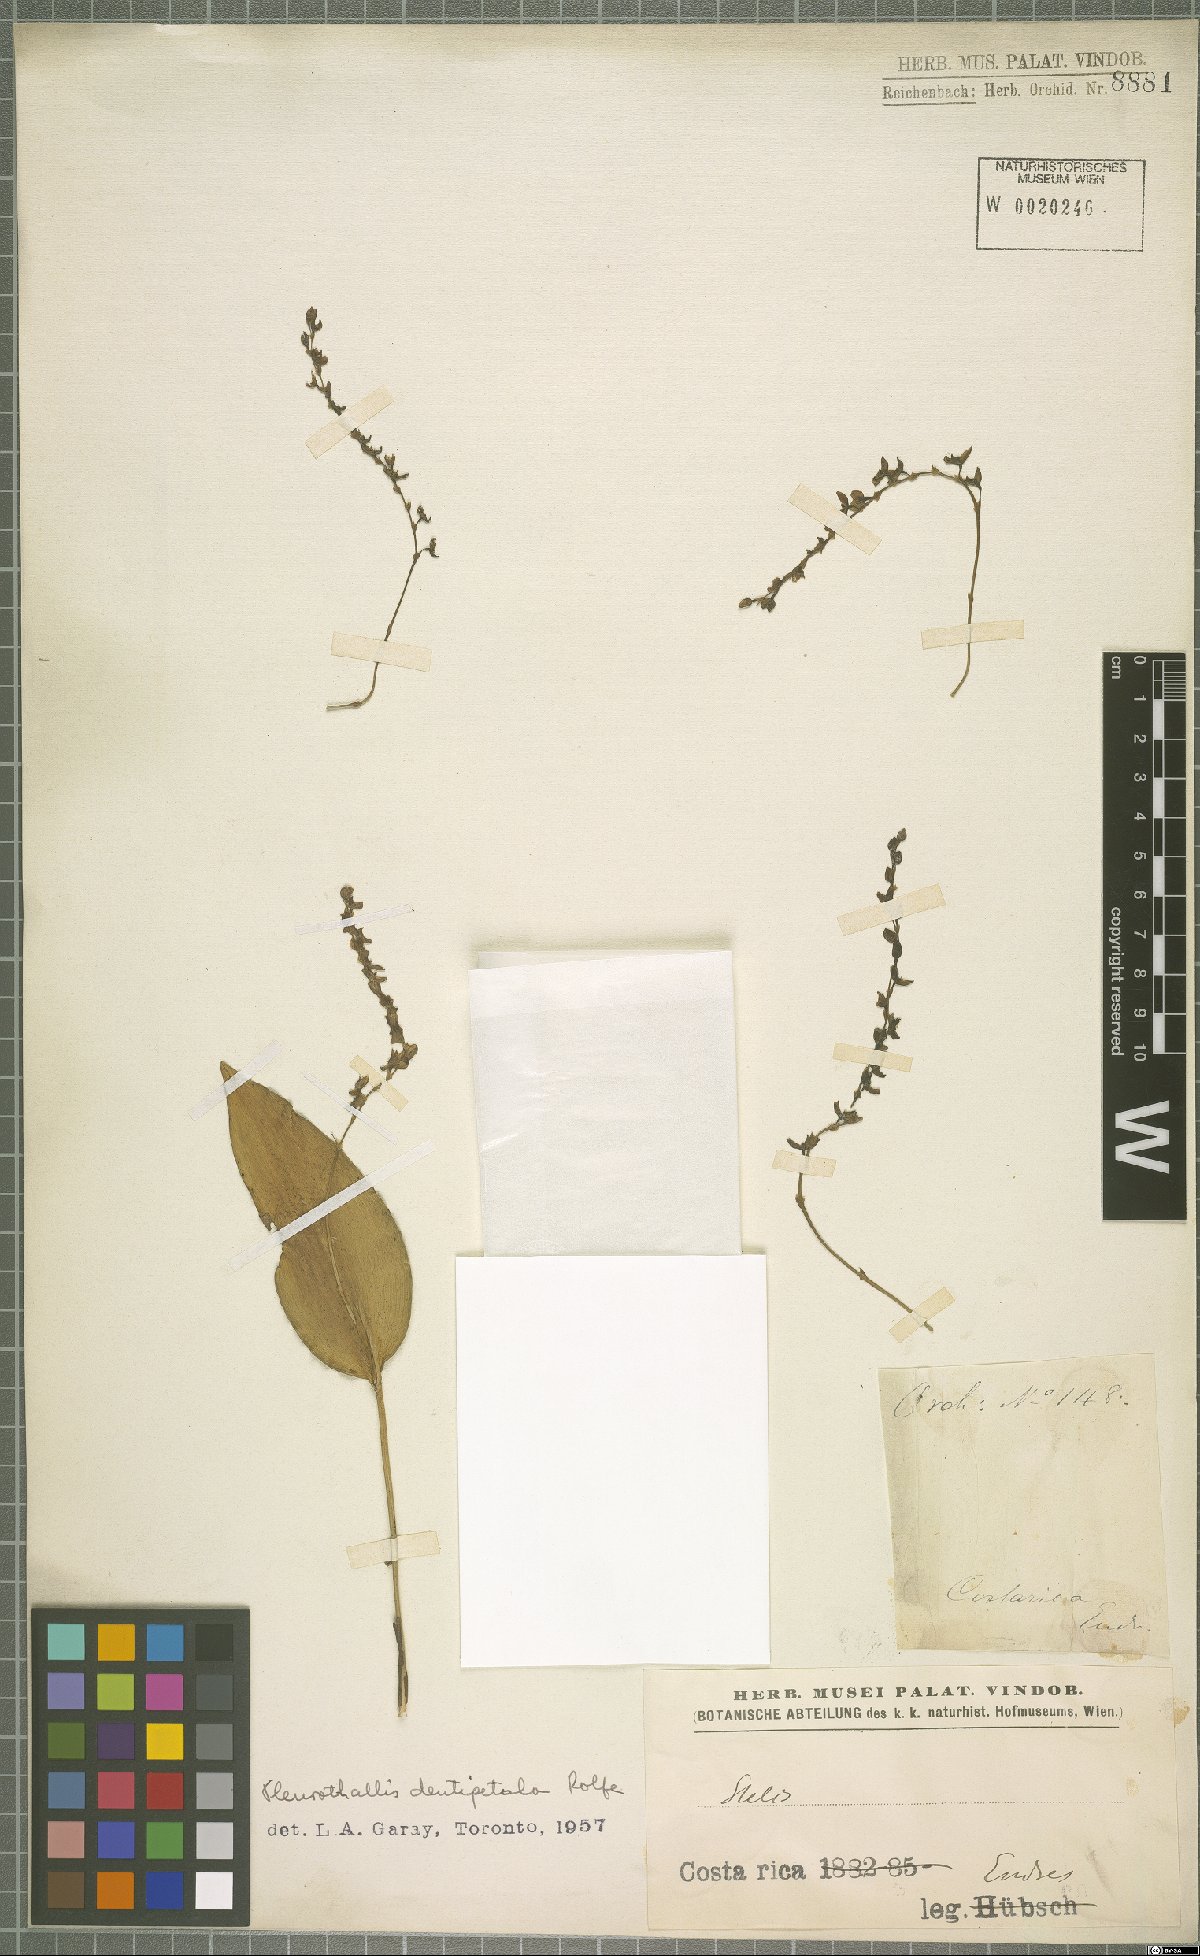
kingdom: Plantae
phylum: Tracheophyta
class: Liliopsida
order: Asparagales
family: Orchidaceae
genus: Pleurothallis
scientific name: Pleurothallis dentipetala
